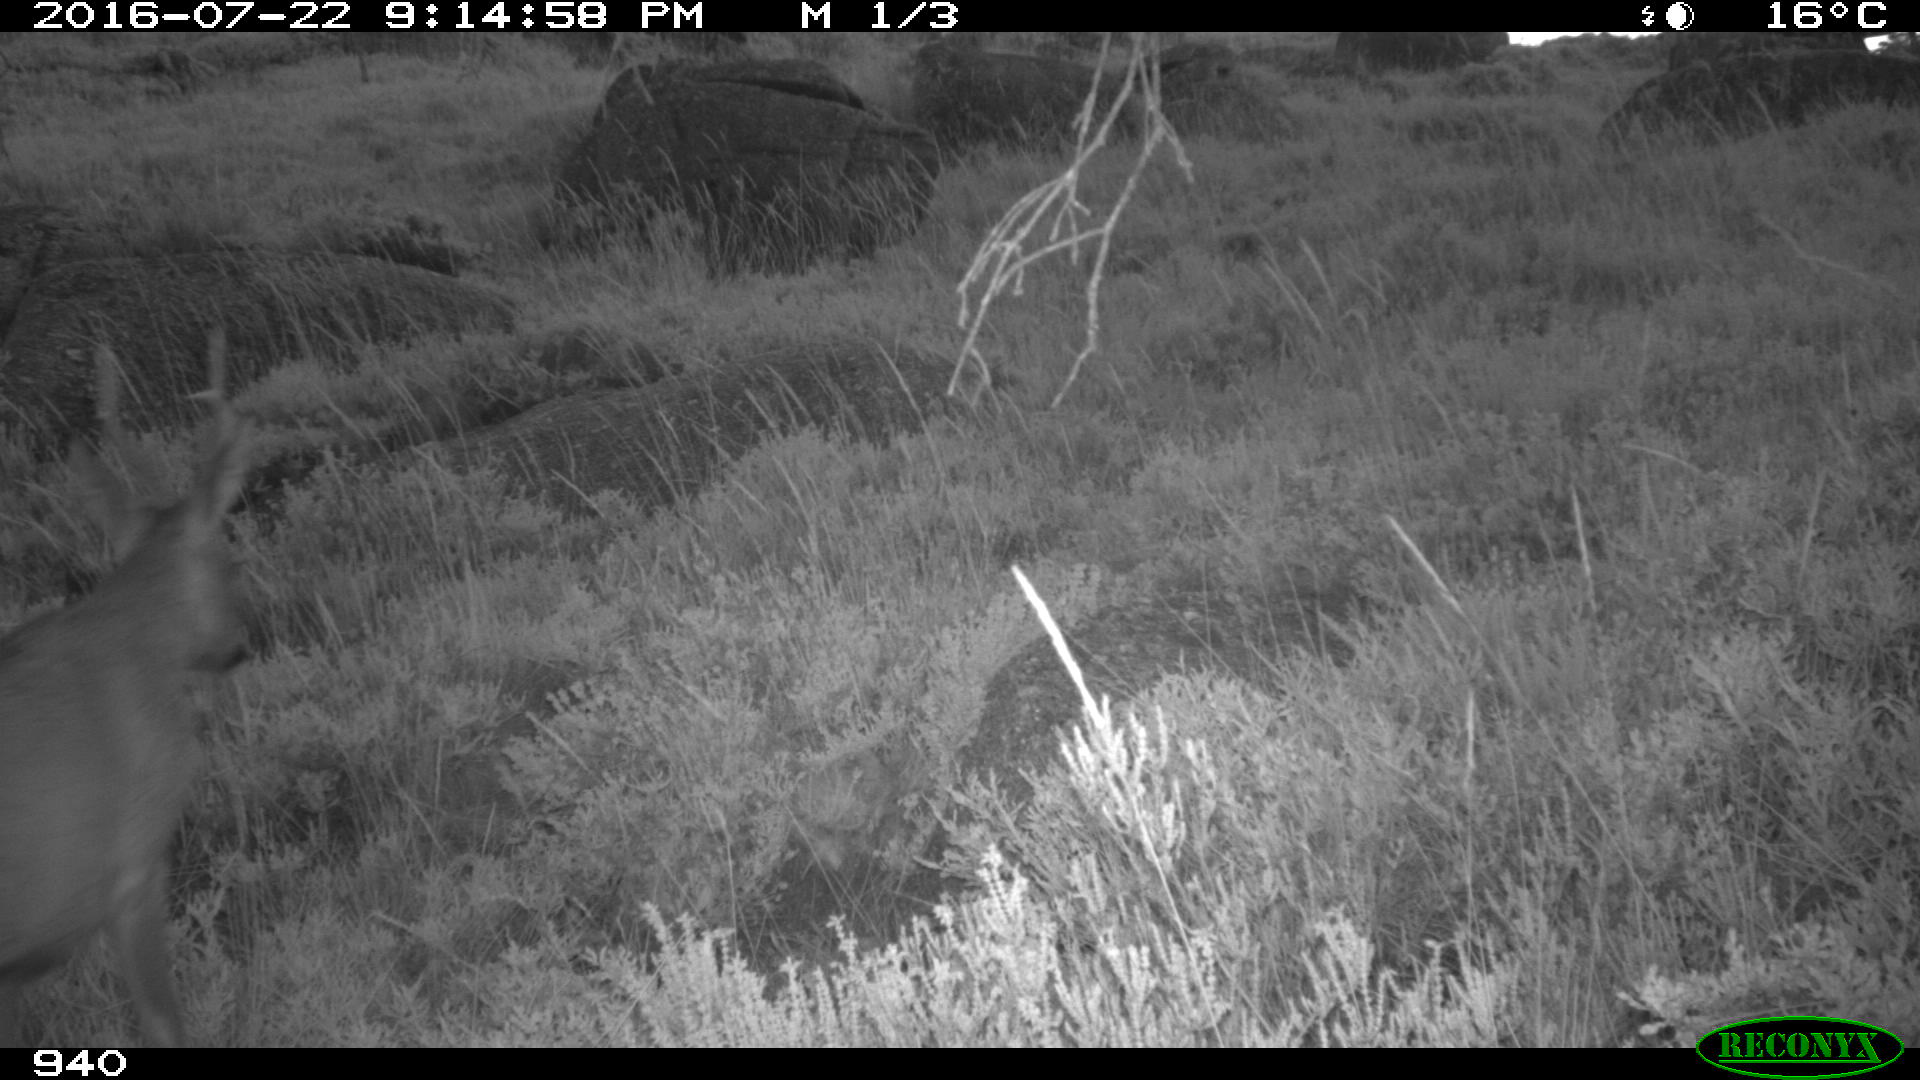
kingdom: Animalia
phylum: Chordata
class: Mammalia
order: Artiodactyla
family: Cervidae
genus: Capreolus
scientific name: Capreolus capreolus
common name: Western roe deer
